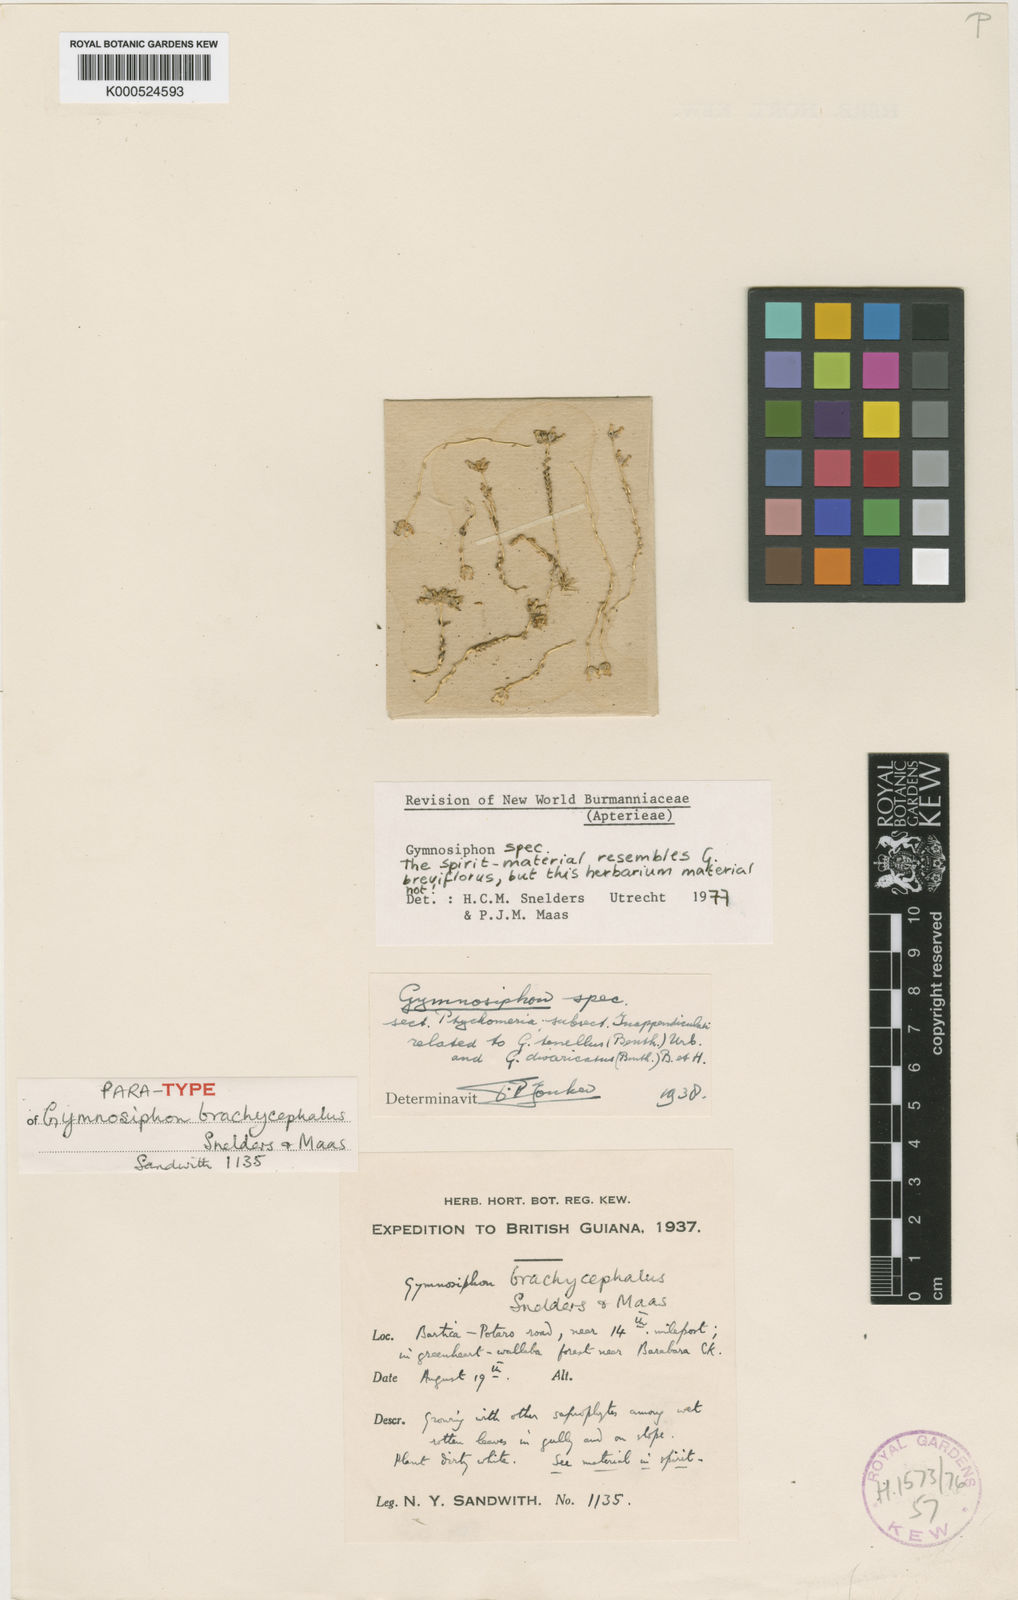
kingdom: Plantae
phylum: Tracheophyta
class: Liliopsida
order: Dioscoreales
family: Burmanniaceae
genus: Gymnosiphon
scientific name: Gymnosiphon brachycephalus
